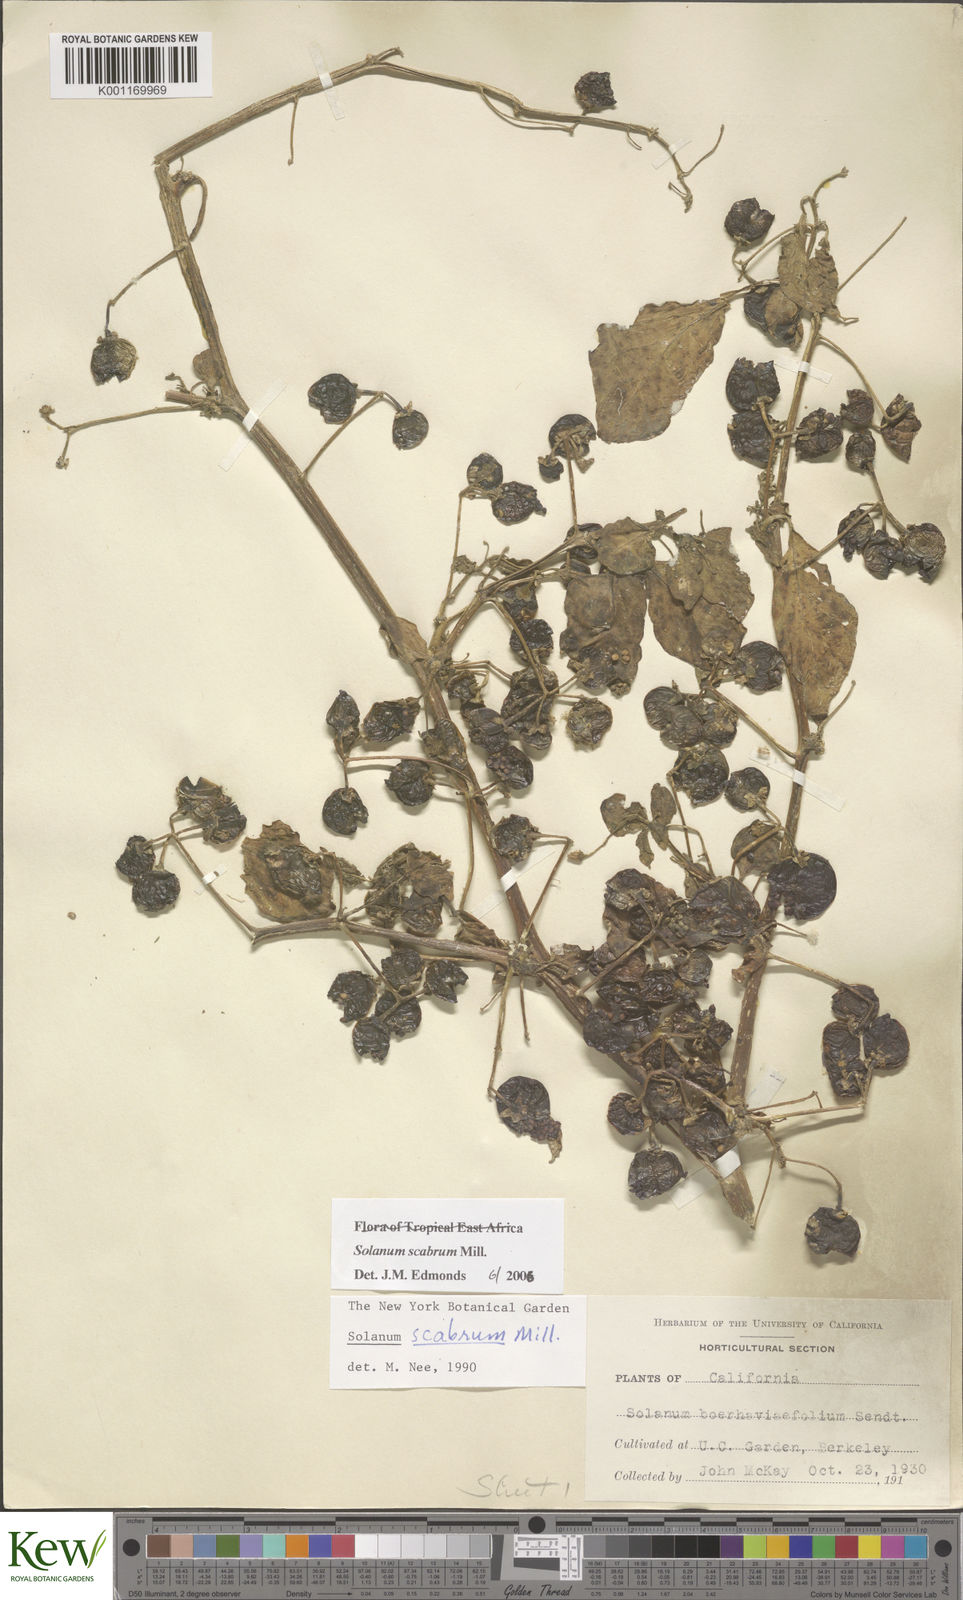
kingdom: Plantae
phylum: Tracheophyta
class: Magnoliopsida
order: Solanales
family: Solanaceae
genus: Solanum
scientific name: Solanum scabrum
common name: Garden-huckleberry
